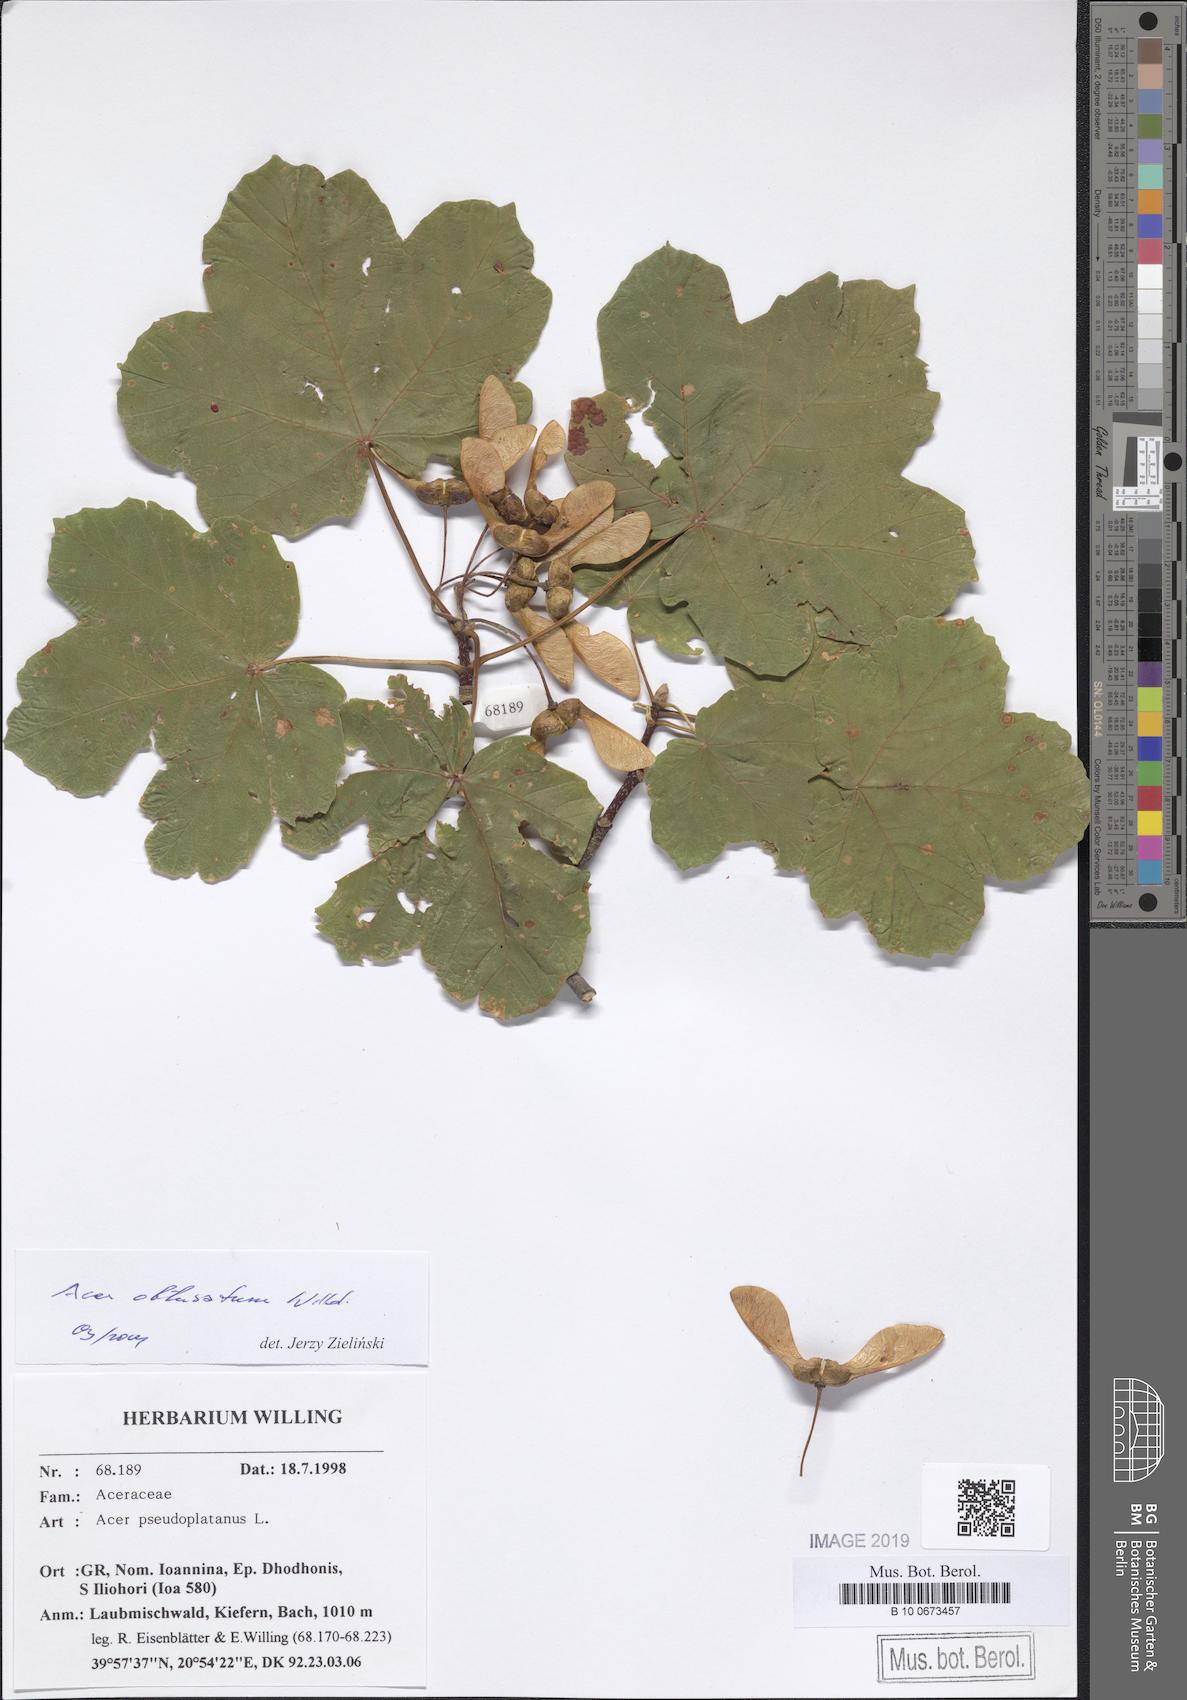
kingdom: Plantae
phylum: Tracheophyta
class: Magnoliopsida
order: Sapindales
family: Sapindaceae
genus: Acer
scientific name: Acer obtusatum
